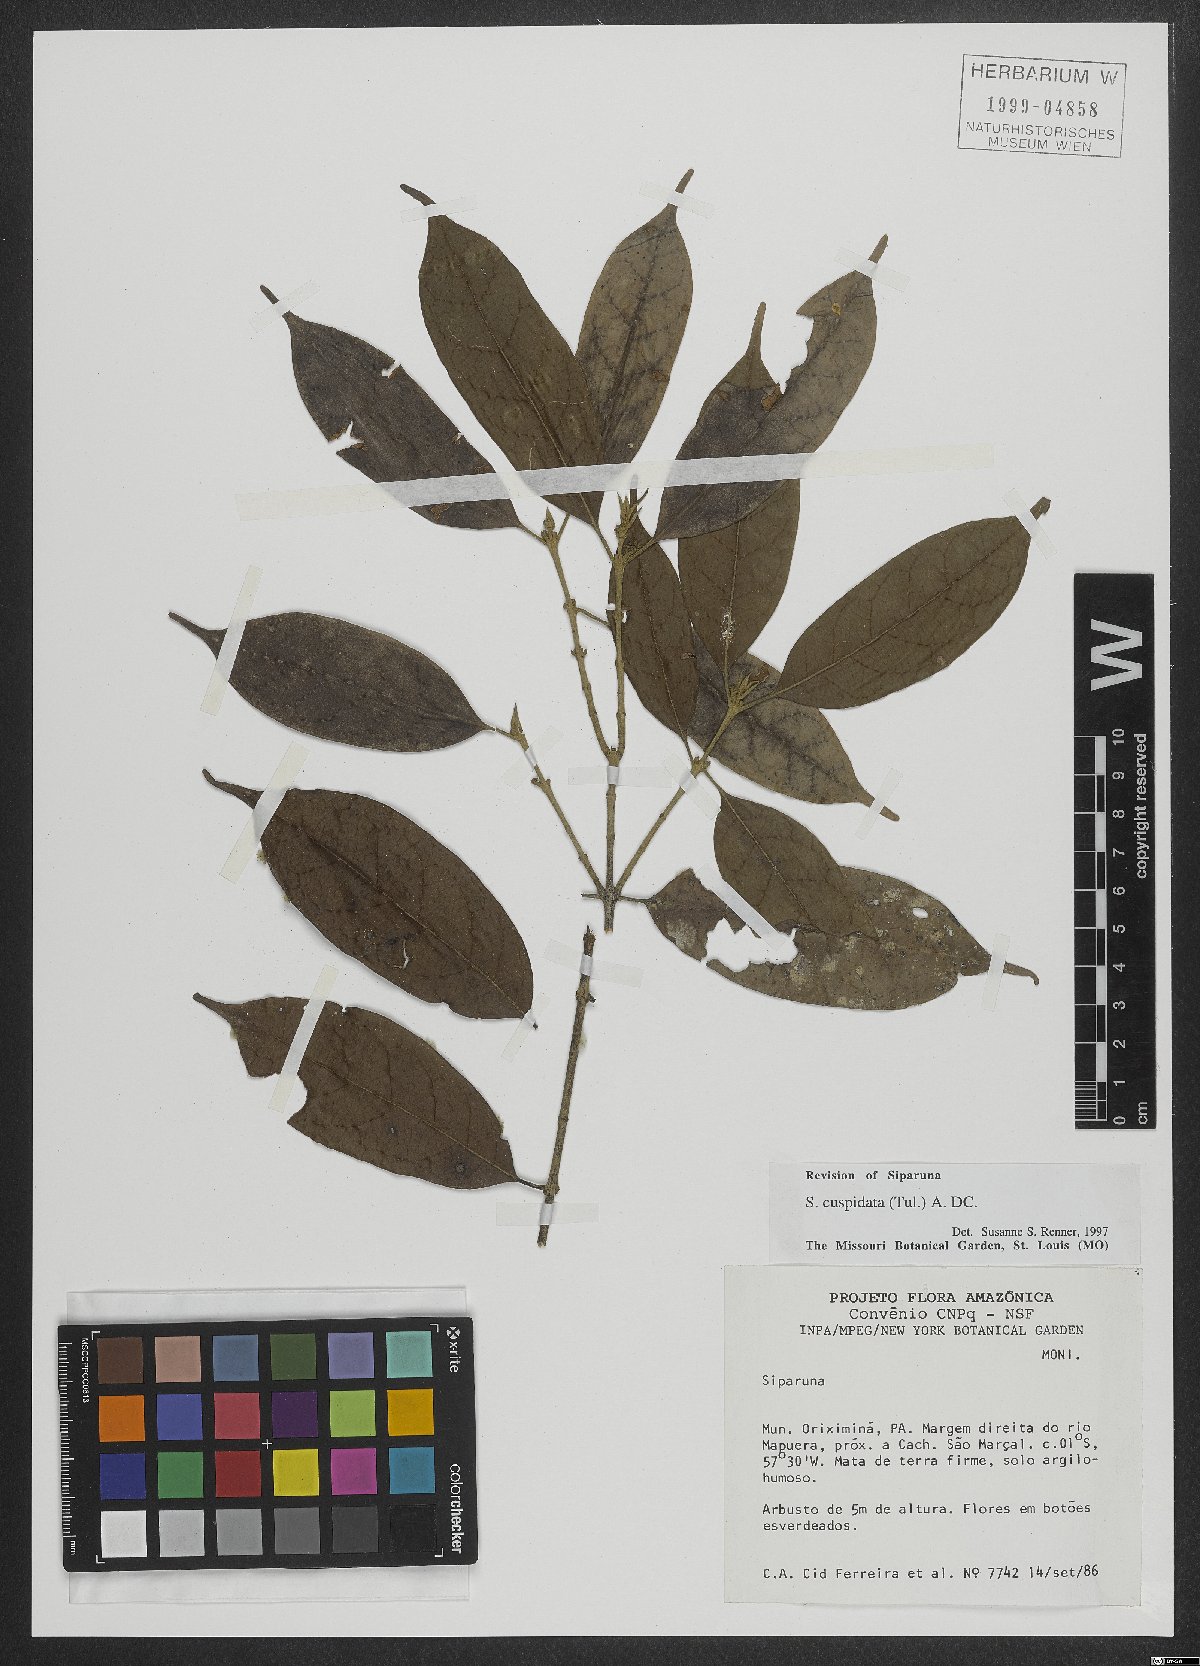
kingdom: Plantae
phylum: Tracheophyta
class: Magnoliopsida
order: Laurales
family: Siparunaceae
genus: Siparuna
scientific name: Siparuna cuspidata
